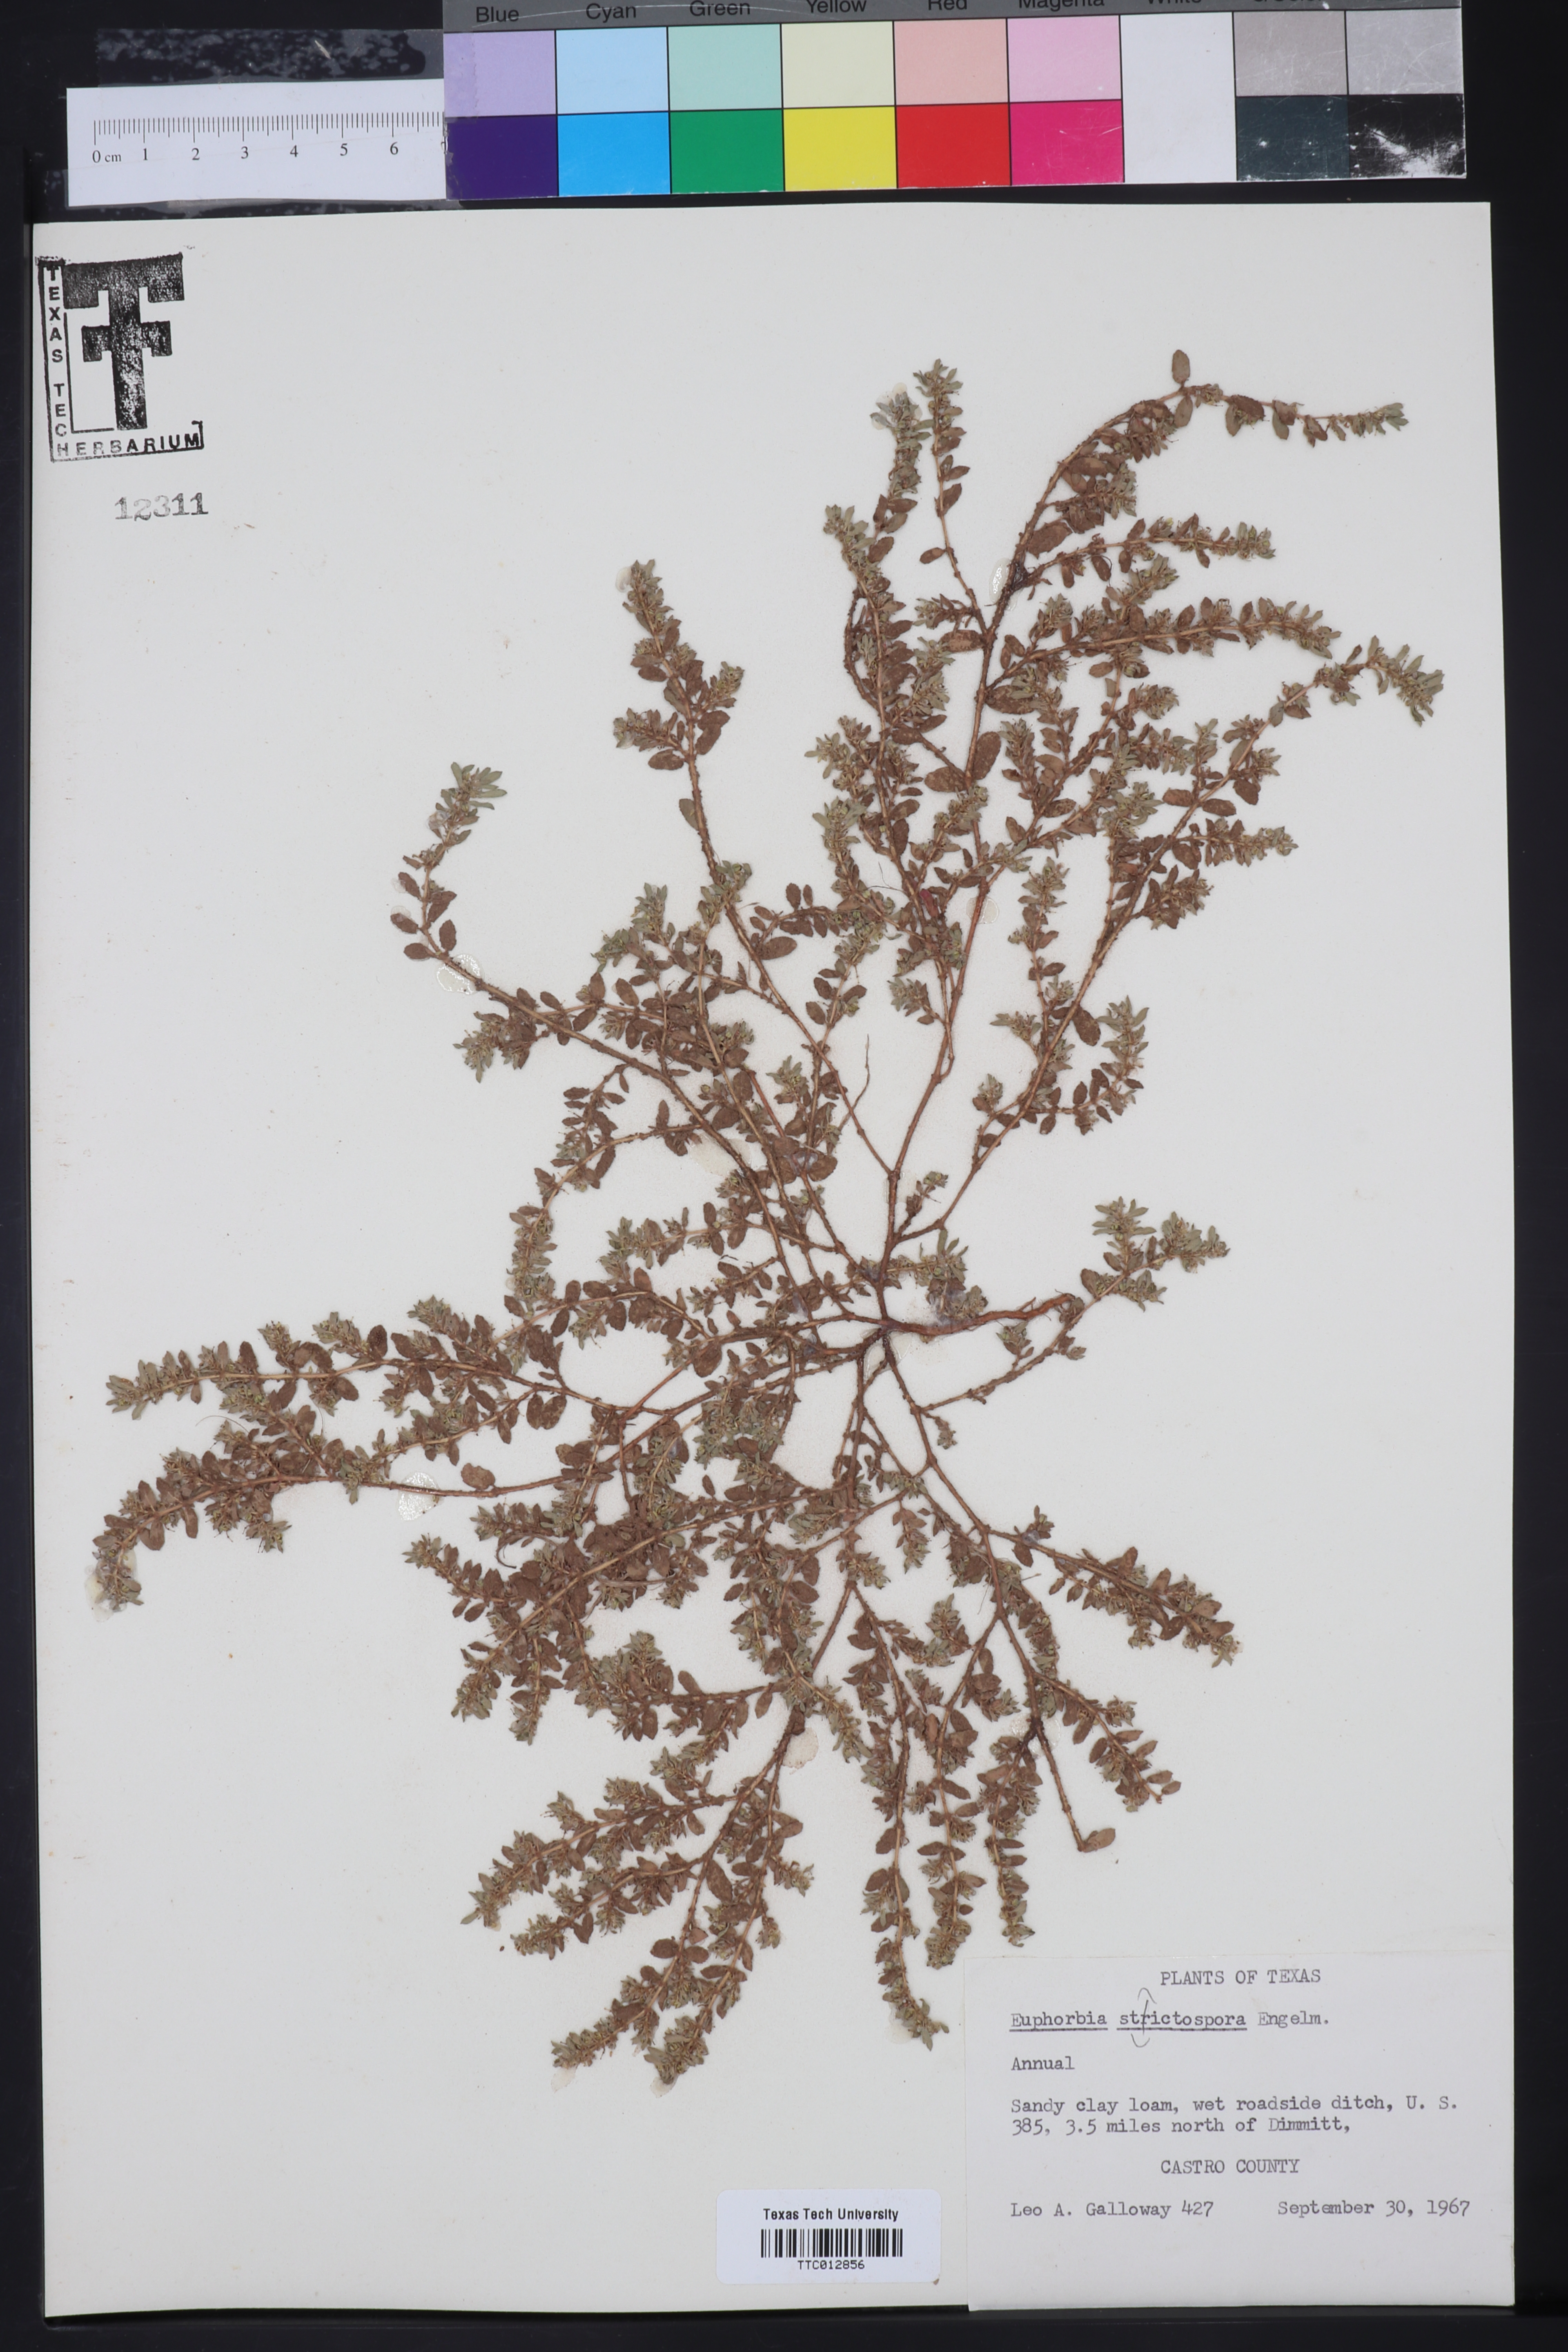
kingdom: Plantae
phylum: Tracheophyta
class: Magnoliopsida
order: Malpighiales
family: Euphorbiaceae
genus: Euphorbia
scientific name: Euphorbia stictospora
